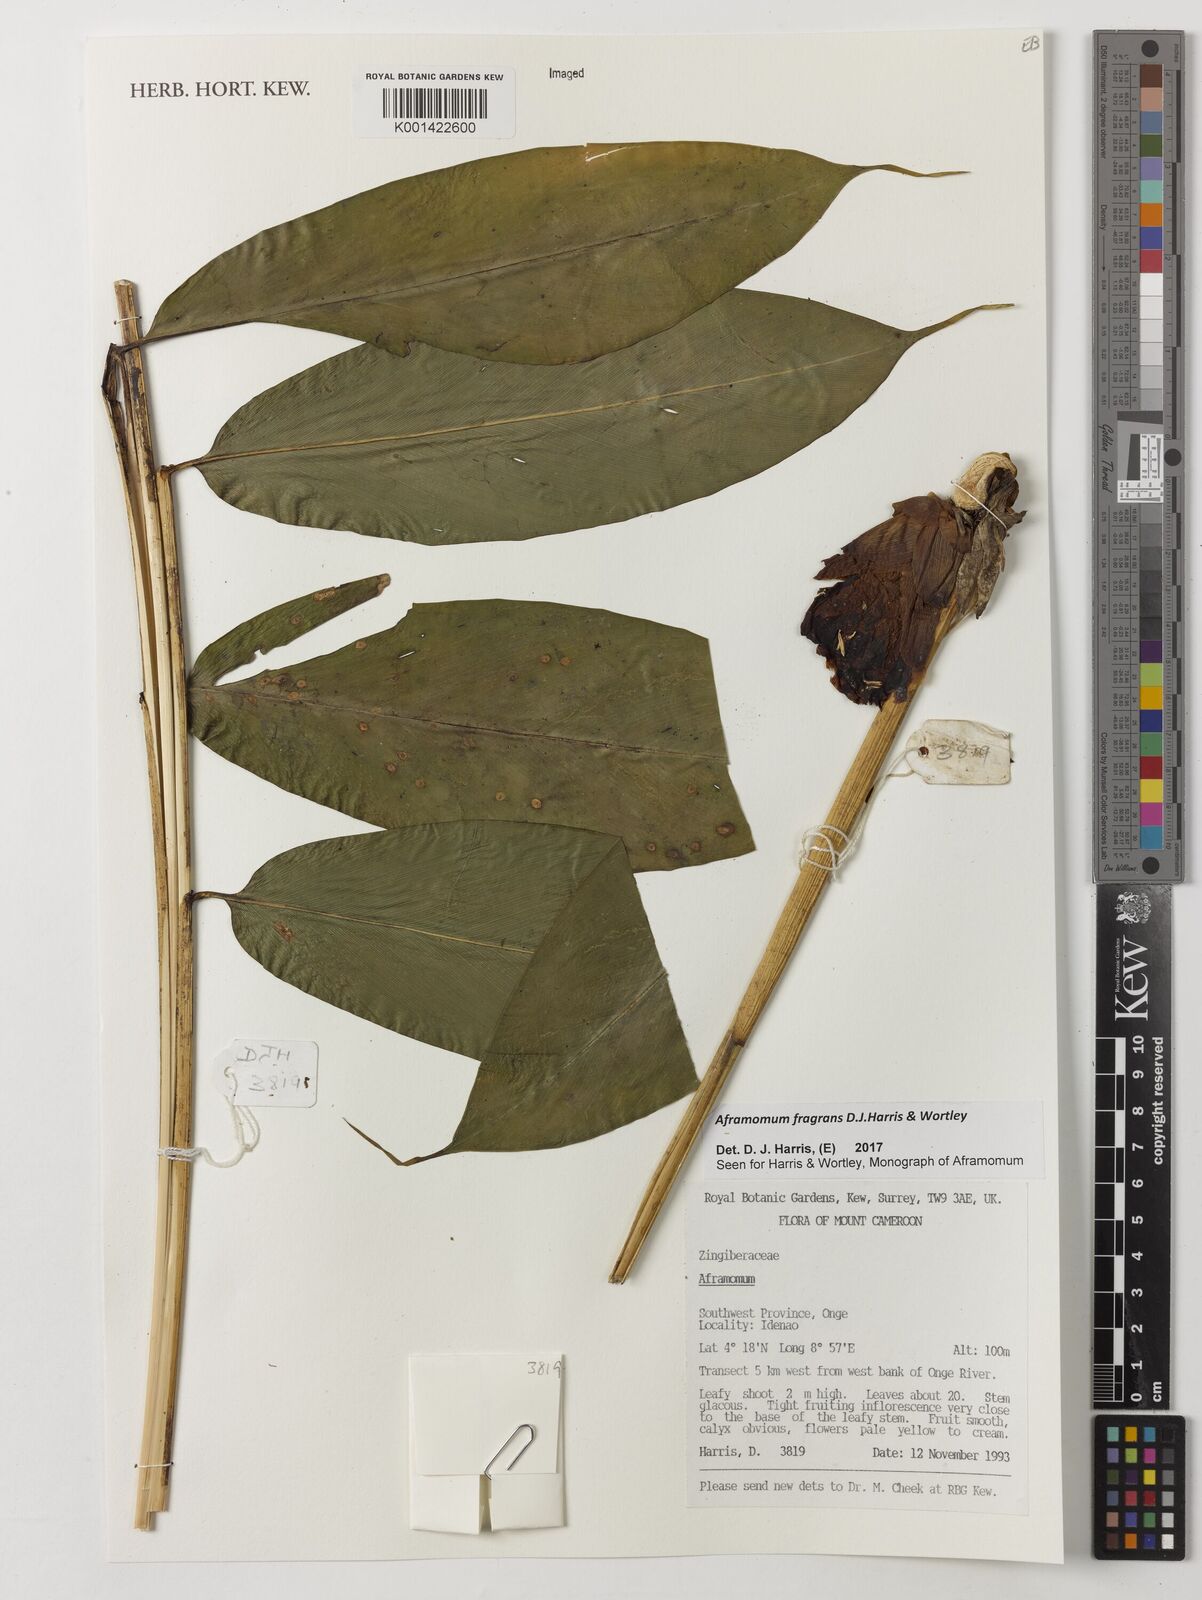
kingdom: Plantae
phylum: Tracheophyta
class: Liliopsida
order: Zingiberales
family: Zingiberaceae
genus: Aframomum
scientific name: Aframomum fragrans
